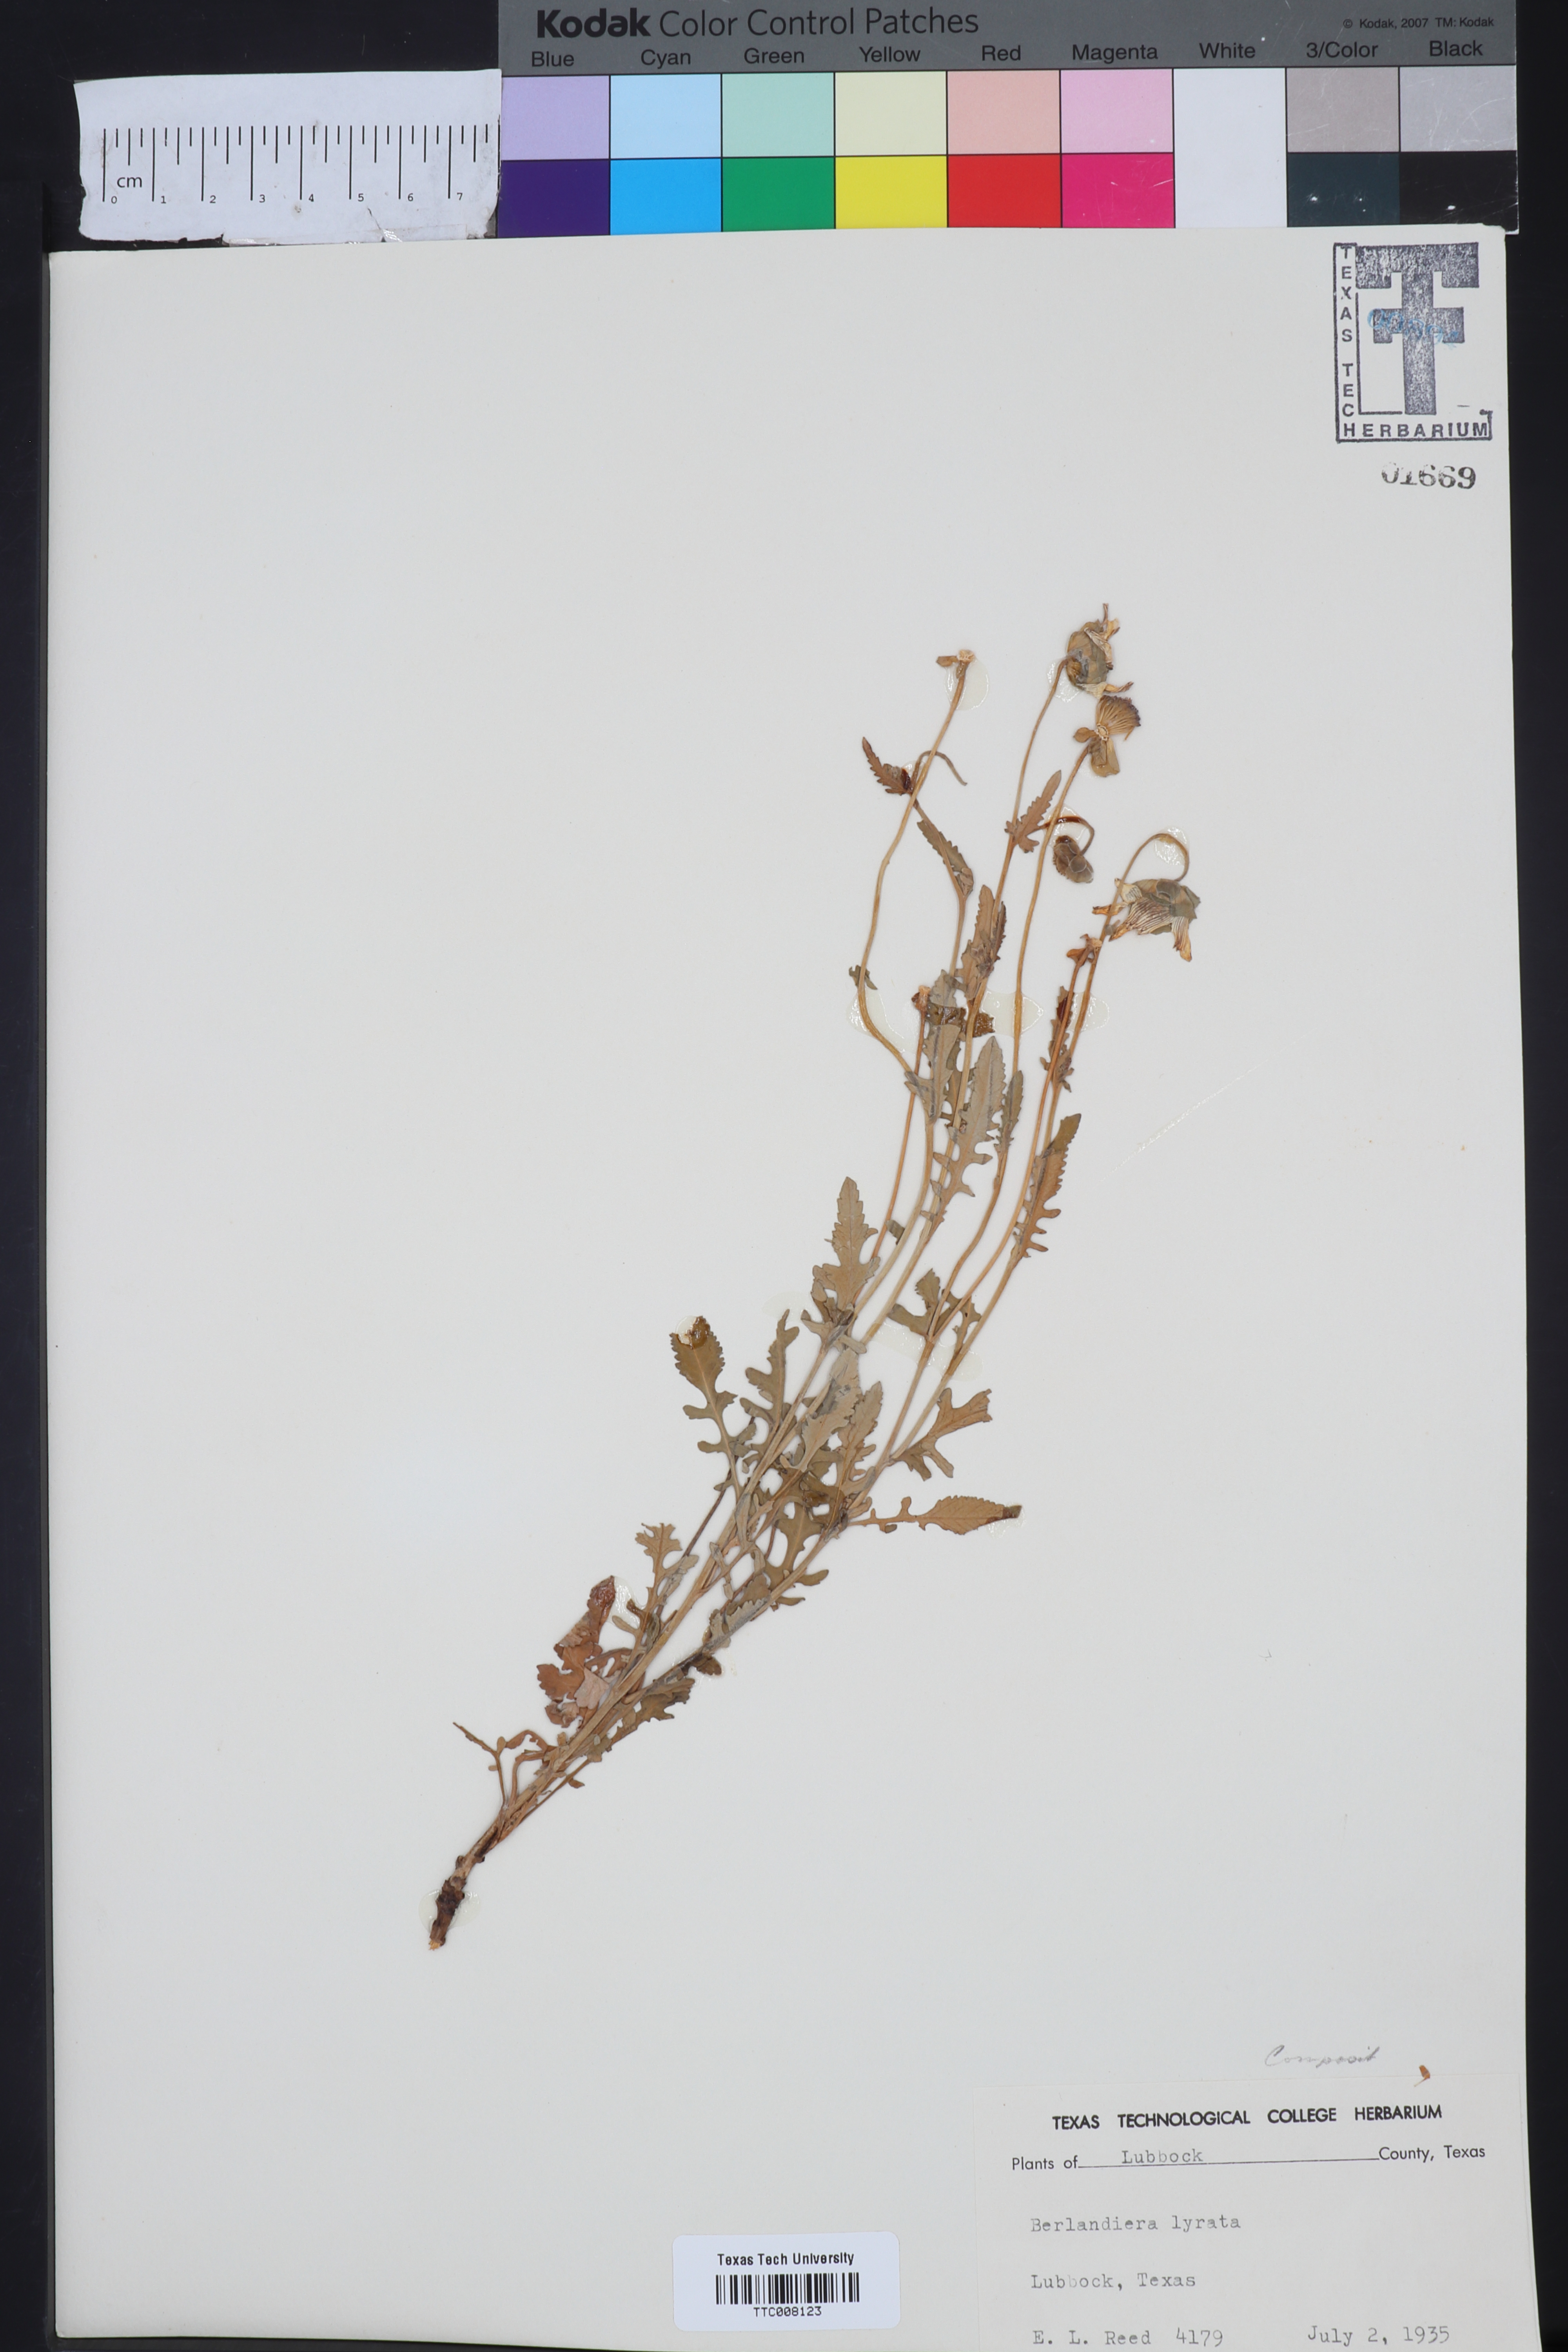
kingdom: Plantae
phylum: Tracheophyta
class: Magnoliopsida
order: Asterales
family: Asteraceae
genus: Berlandiera
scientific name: Berlandiera lyrata
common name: Chocolate-flower
